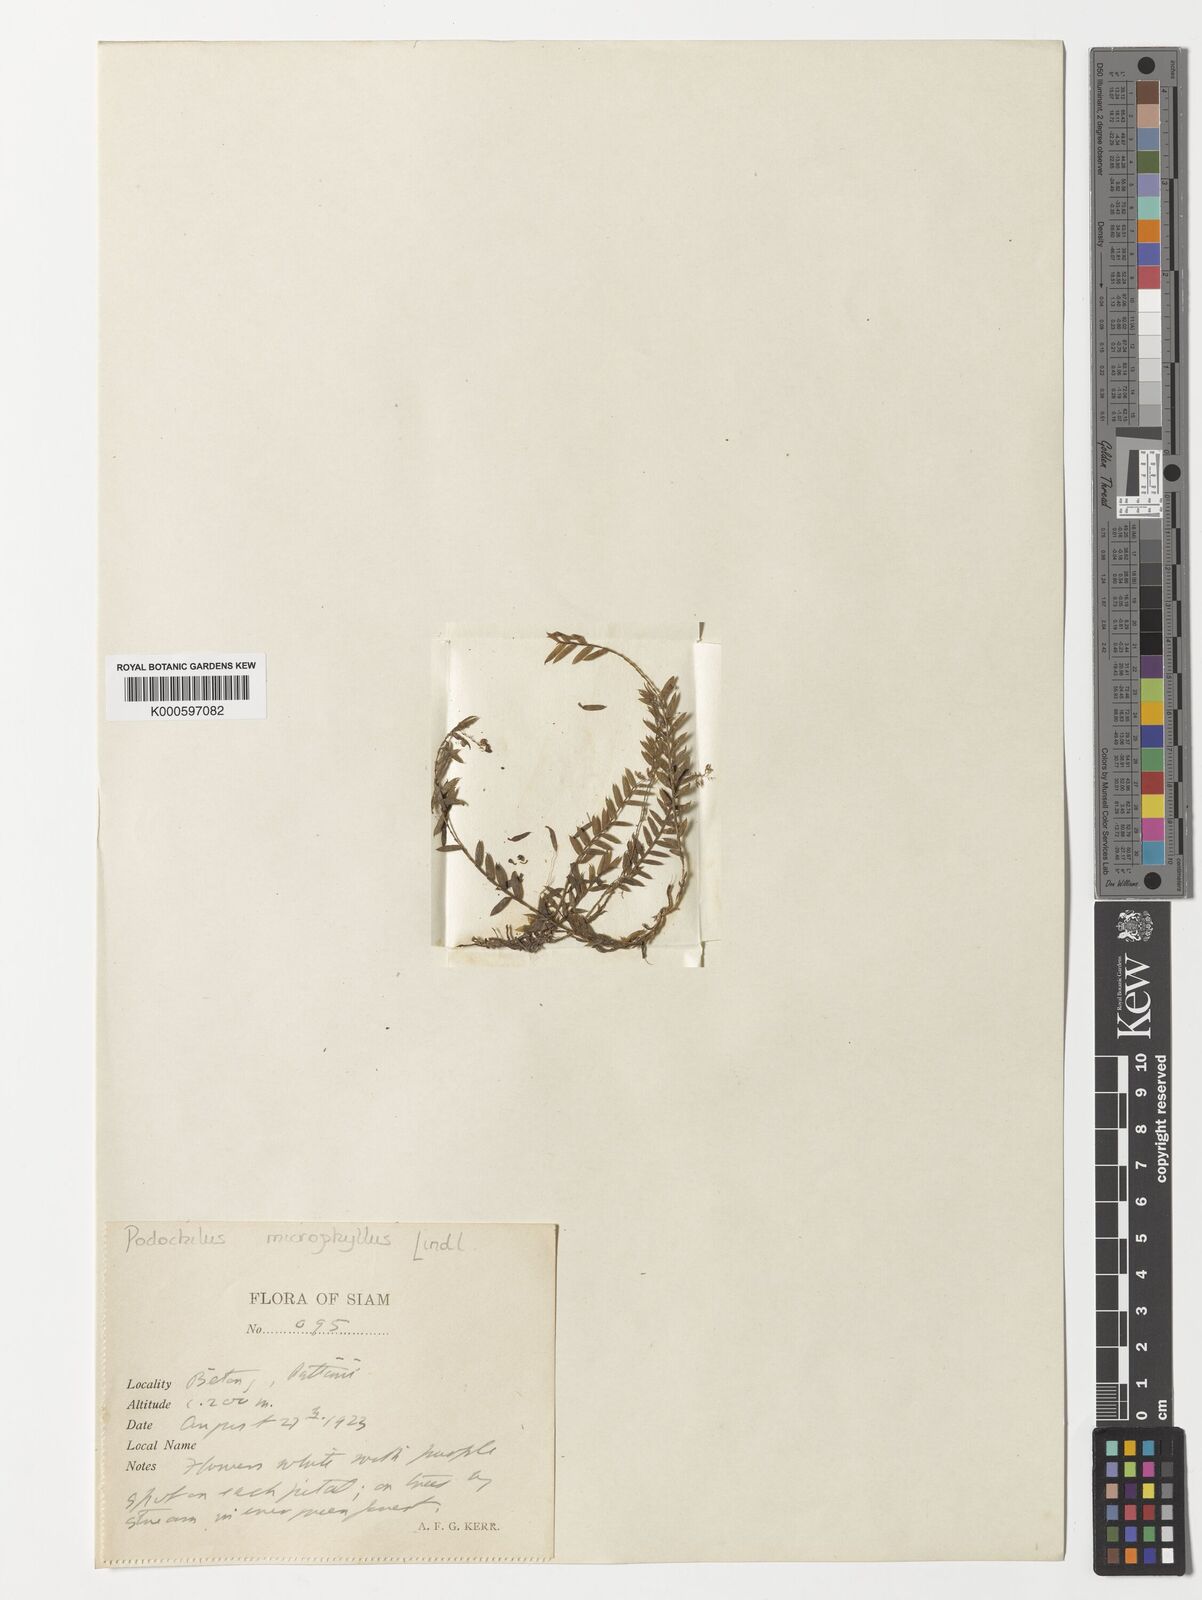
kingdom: Plantae
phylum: Tracheophyta
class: Liliopsida
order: Asparagales
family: Orchidaceae
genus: Podochilus
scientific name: Podochilus microphyllus
